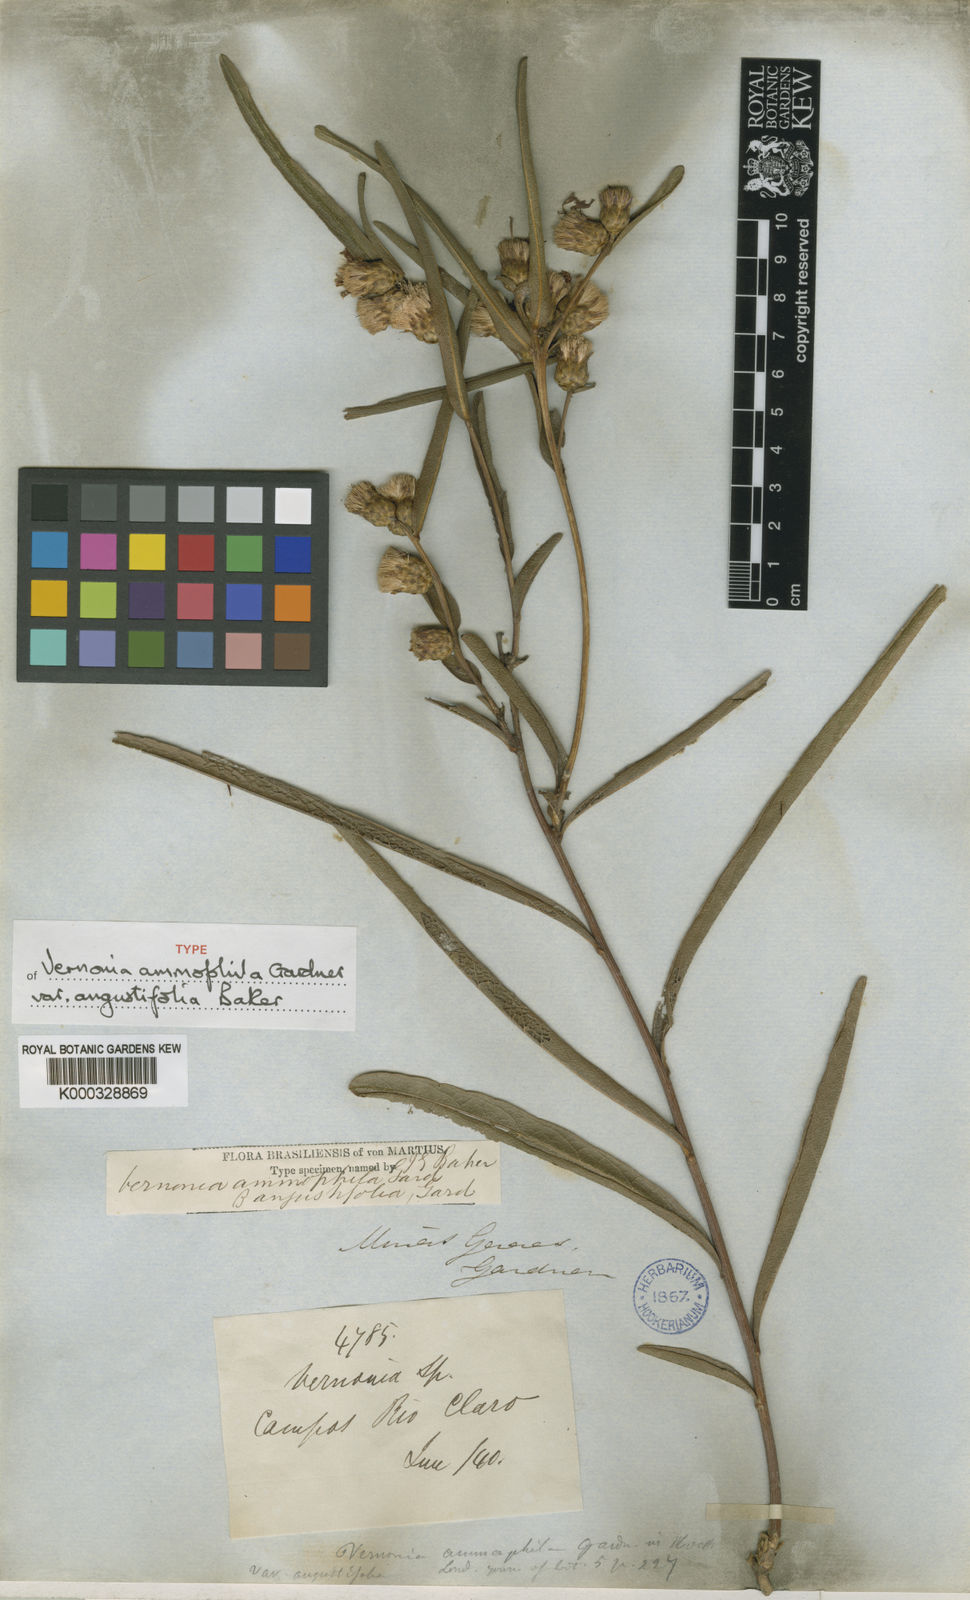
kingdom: Plantae
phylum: Tracheophyta
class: Magnoliopsida
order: Asterales
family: Asteraceae
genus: Lessingianthus
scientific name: Lessingianthus ammophilus
